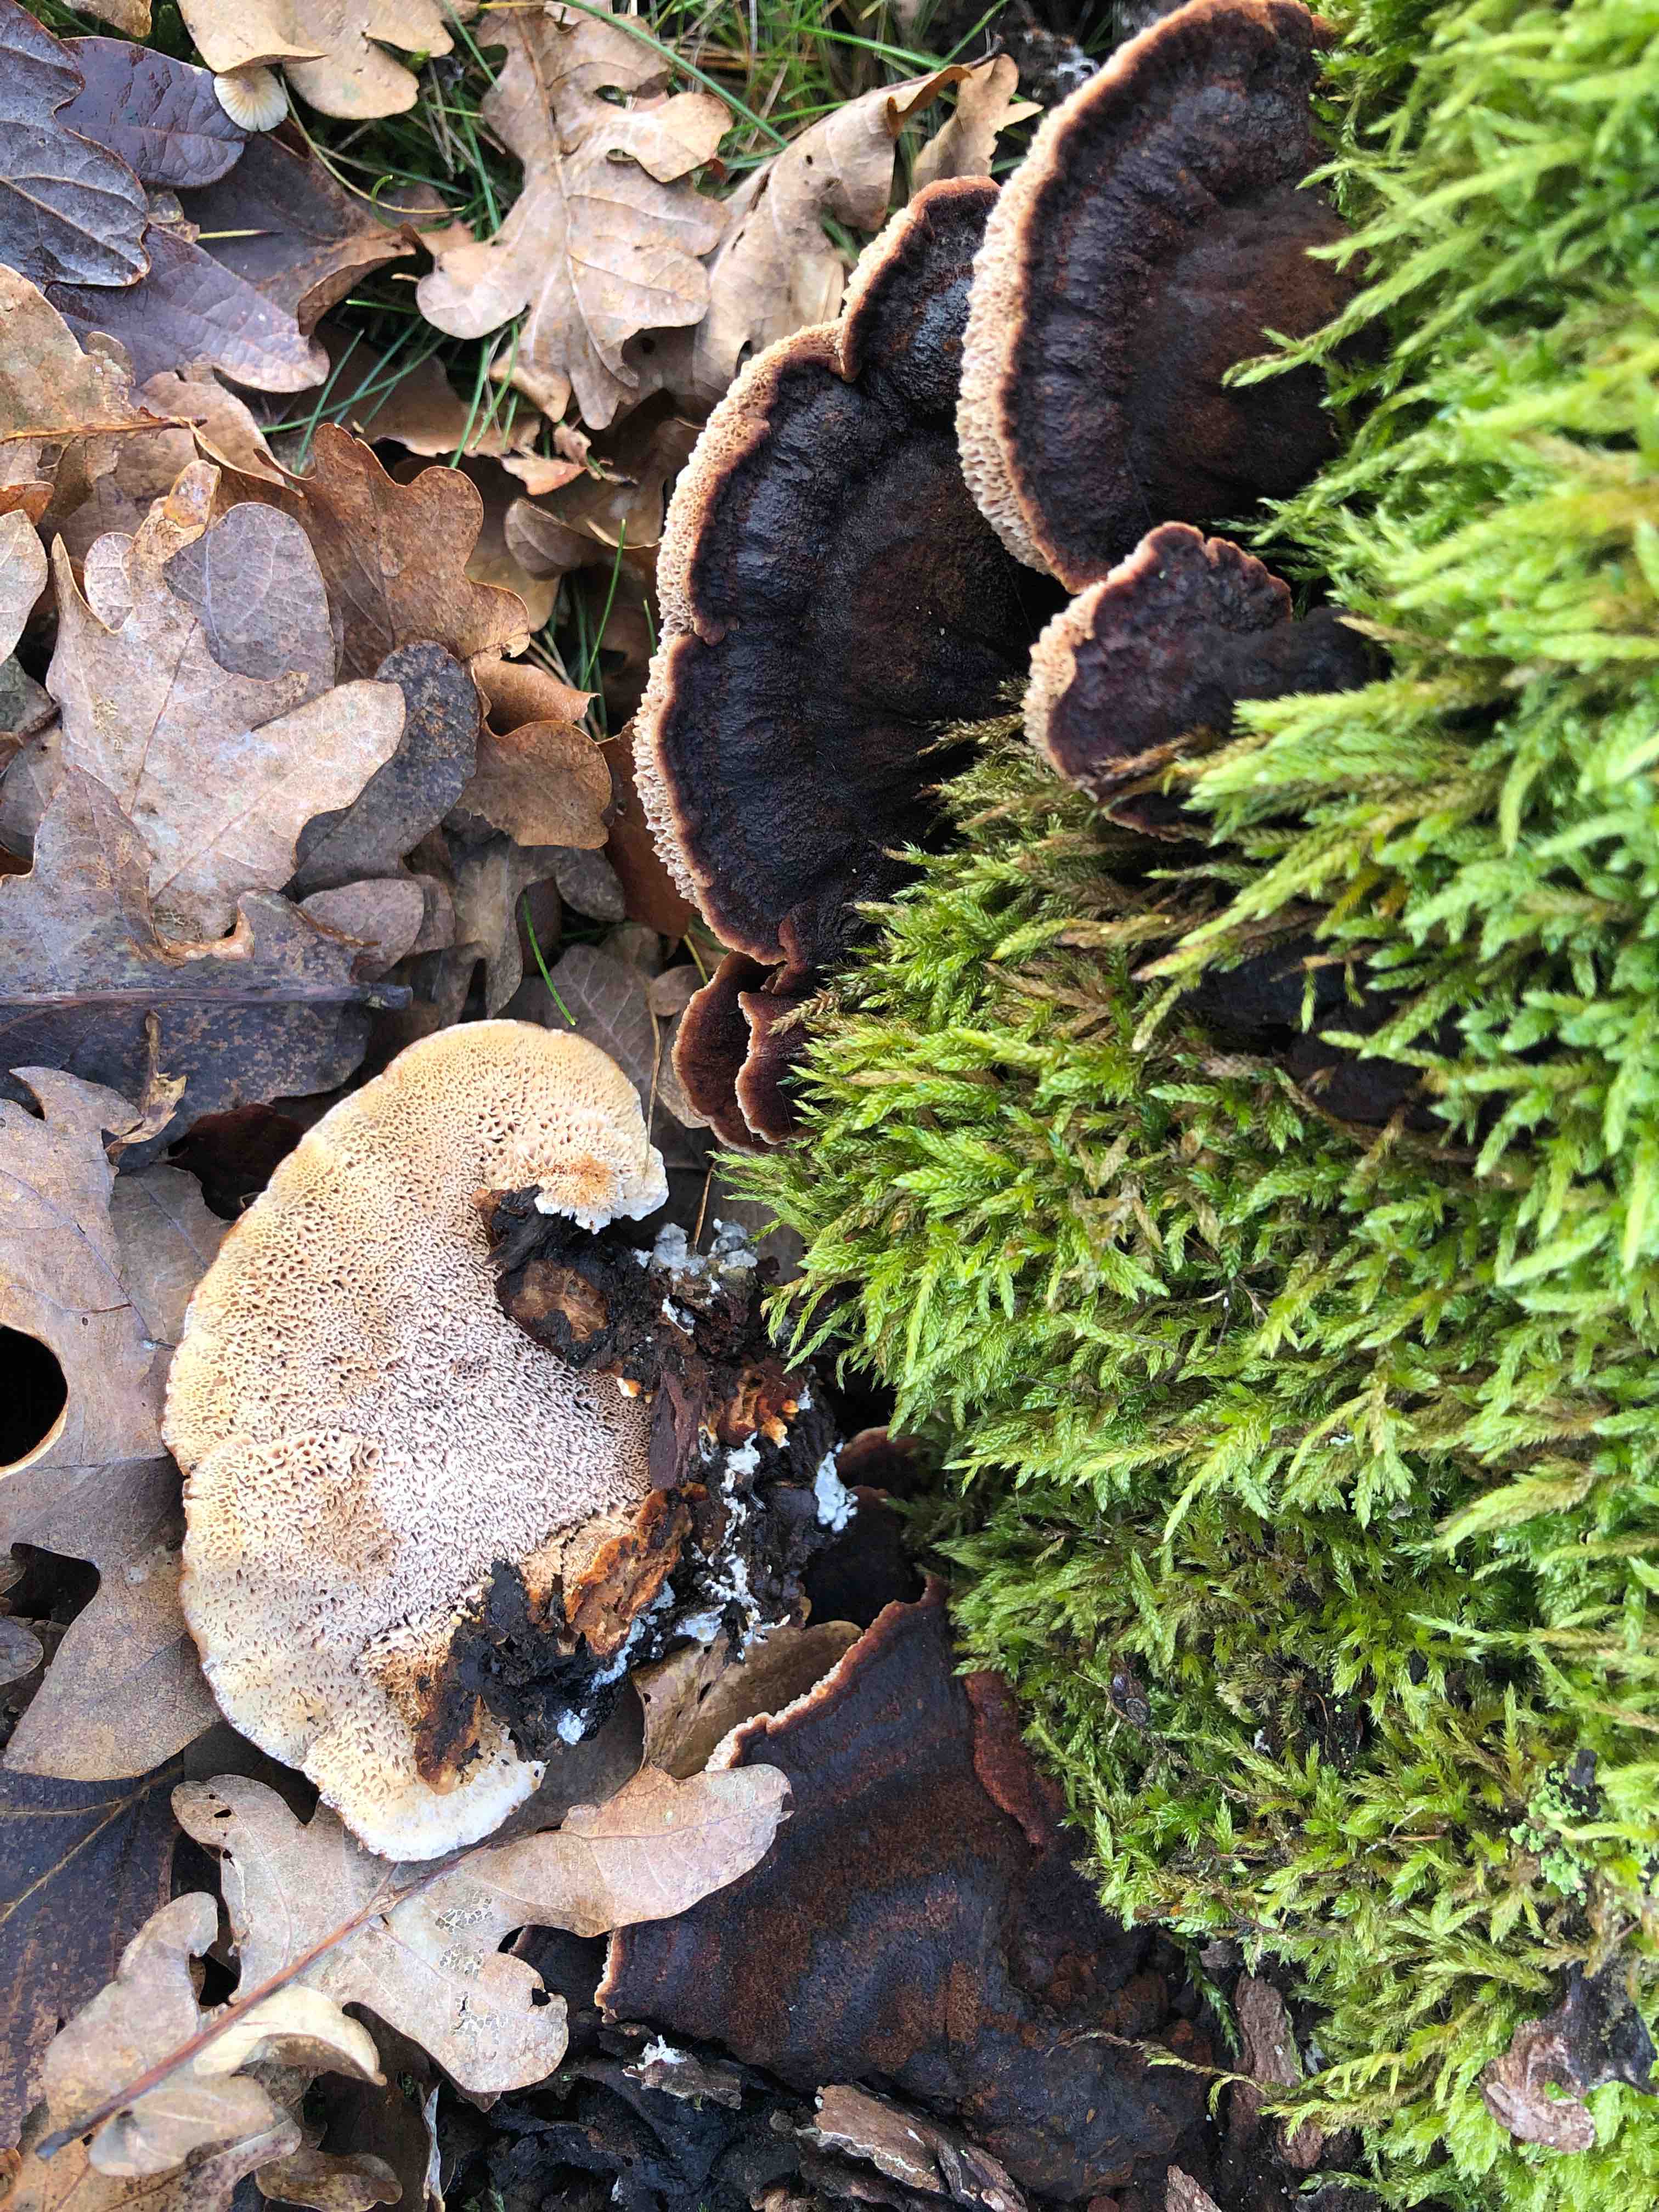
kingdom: Fungi
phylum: Basidiomycota
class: Agaricomycetes
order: Polyporales
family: Ischnodermataceae
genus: Ischnoderma
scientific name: Ischnoderma benzoinum
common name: gran-tjæreporesvamp
